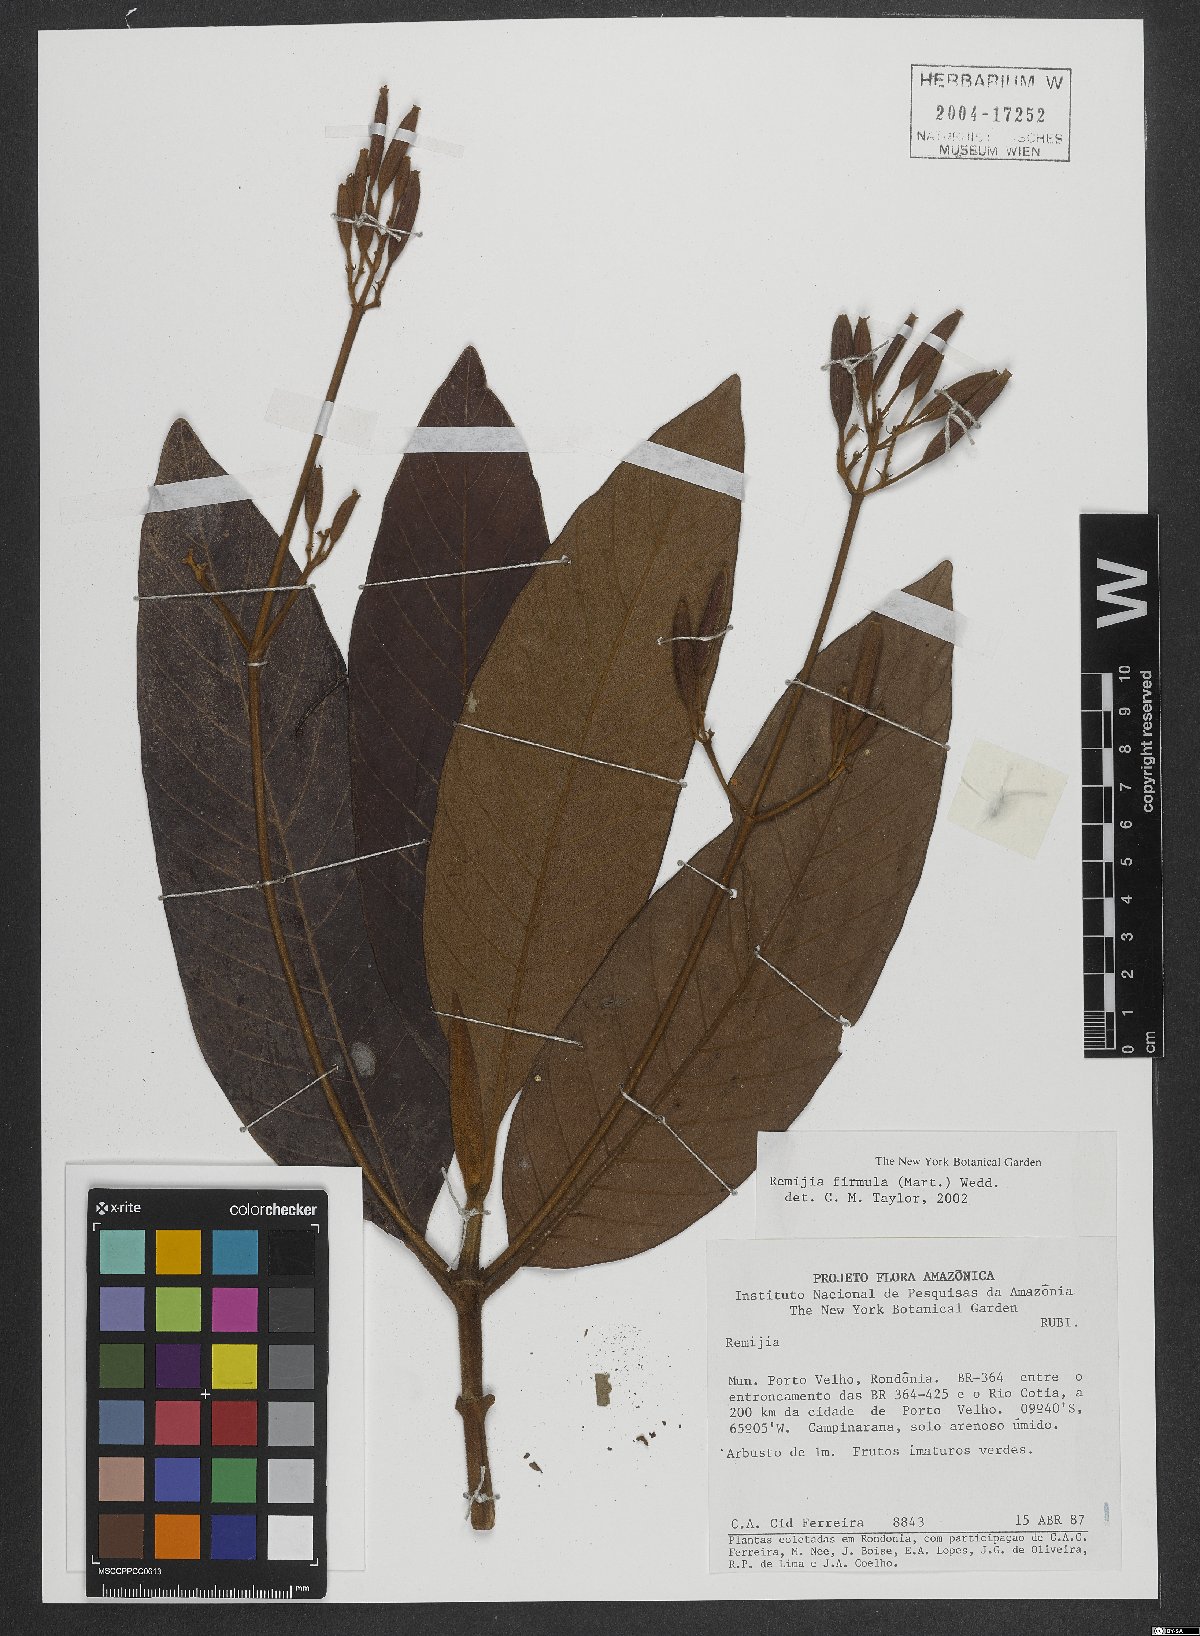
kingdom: Plantae
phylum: Tracheophyta
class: Magnoliopsida
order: Gentianales
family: Rubiaceae
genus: Remijia
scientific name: Remijia firmula
